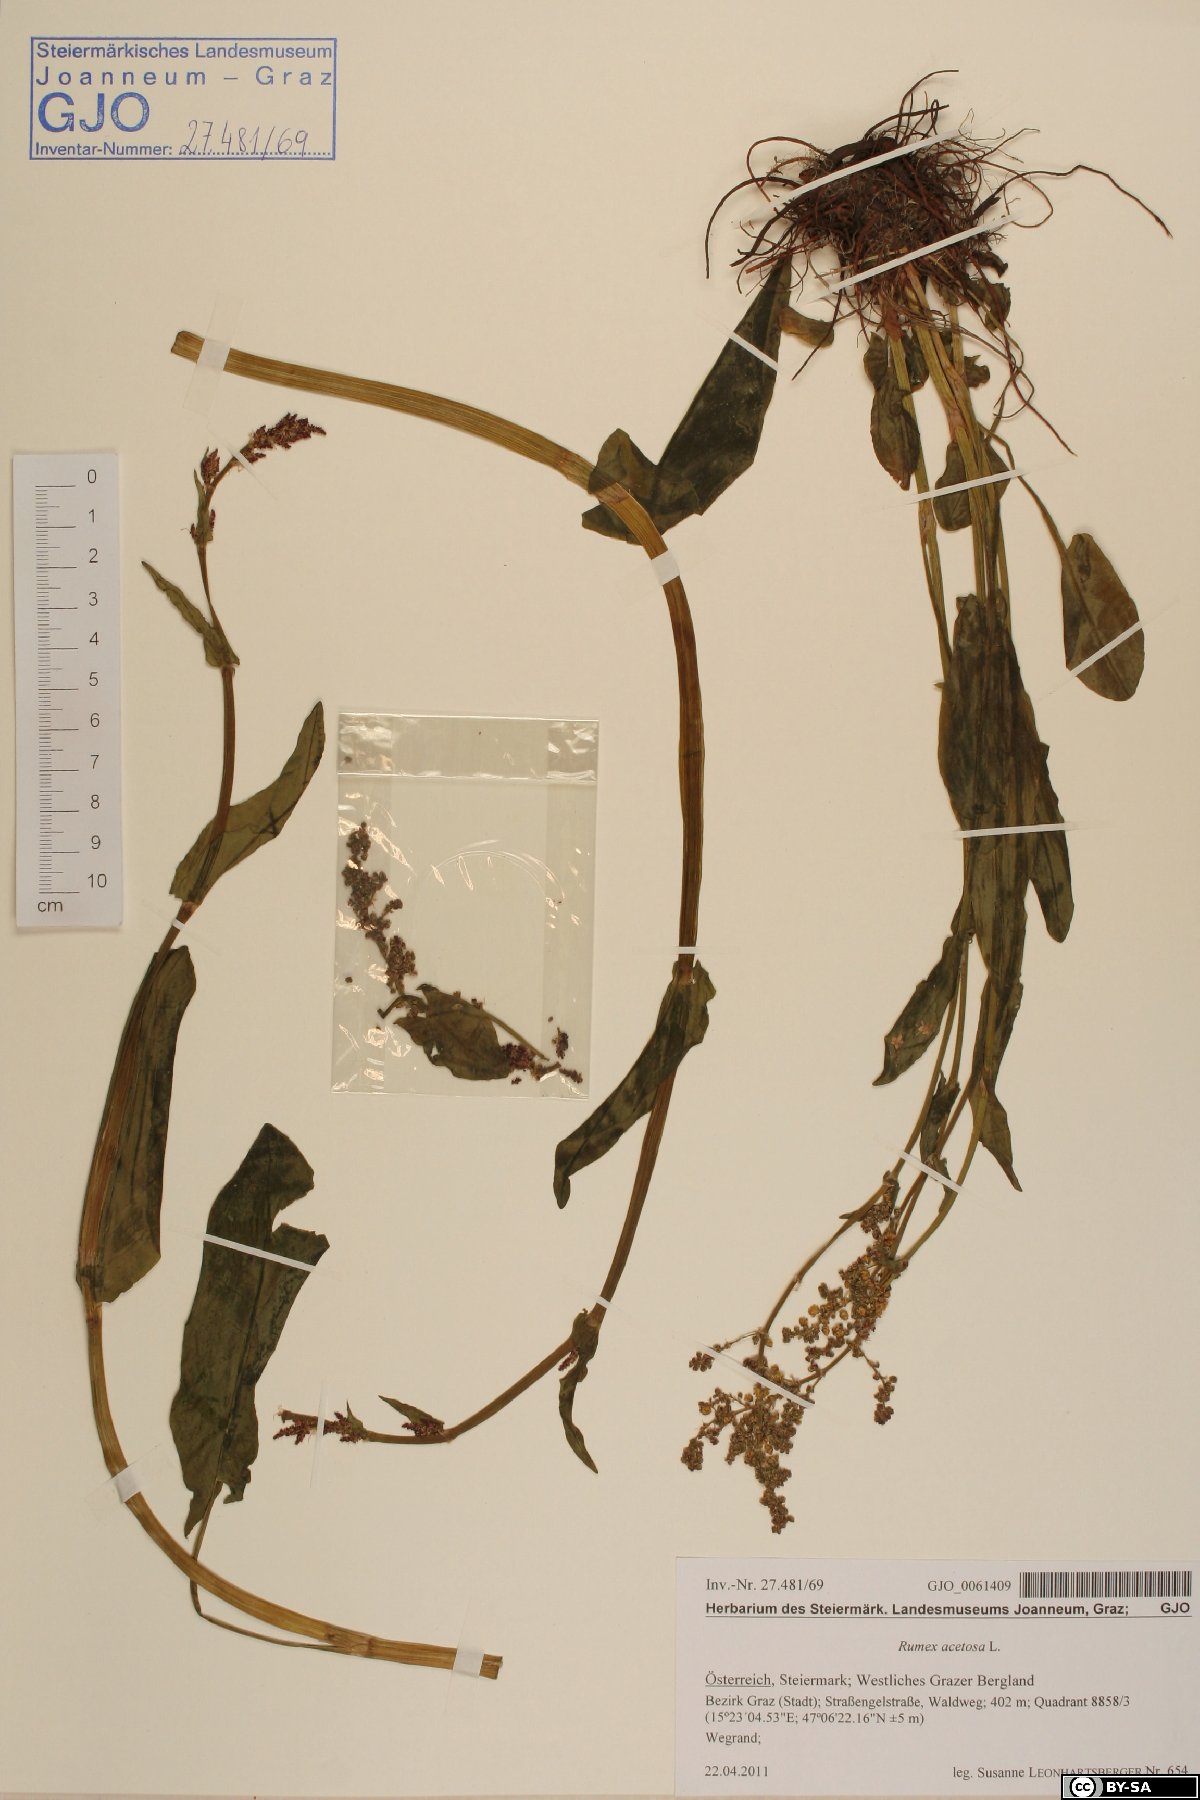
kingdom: Plantae
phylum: Tracheophyta
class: Magnoliopsida
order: Caryophyllales
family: Polygonaceae
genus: Rumex
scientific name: Rumex acetosa
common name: Garden sorrel
